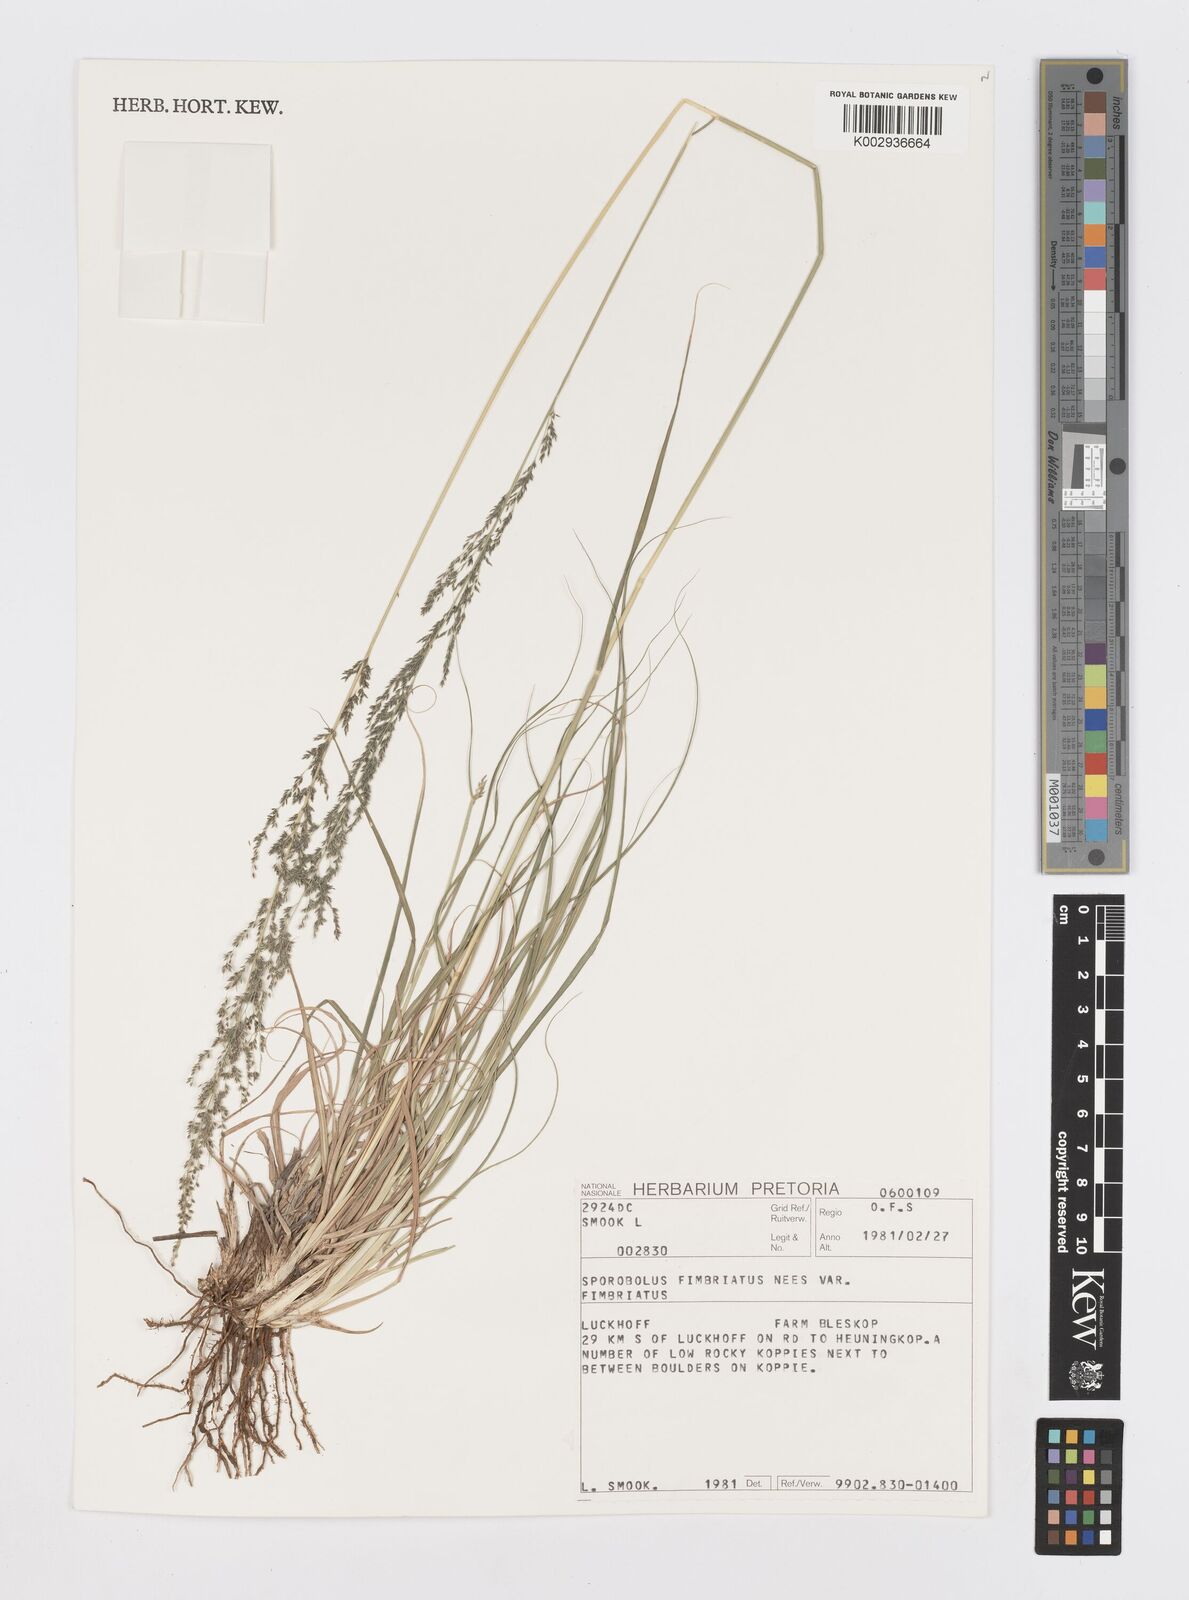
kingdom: Plantae
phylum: Tracheophyta
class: Liliopsida
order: Poales
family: Poaceae
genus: Sporobolus
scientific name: Sporobolus fimbriatus
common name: Fringed dropseed
